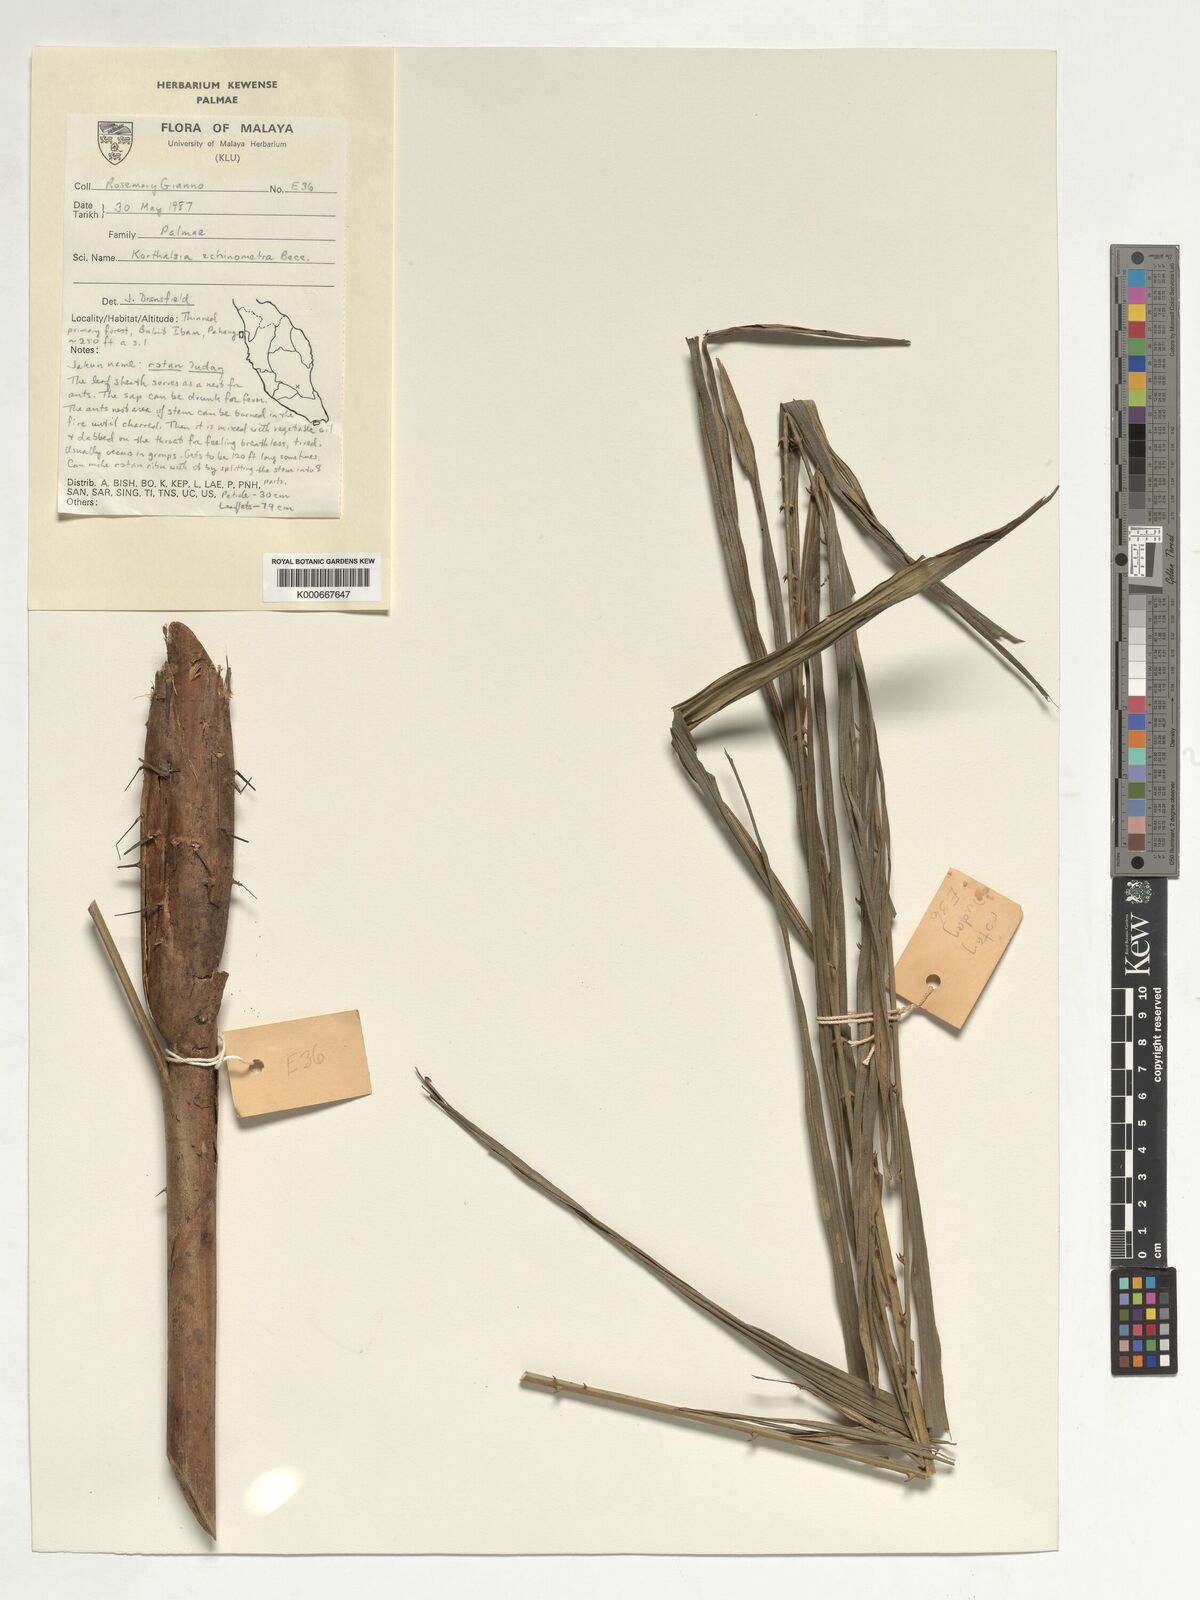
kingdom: Plantae
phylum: Tracheophyta
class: Liliopsida
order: Arecales
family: Arecaceae
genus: Korthalsia
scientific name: Korthalsia echinometra
